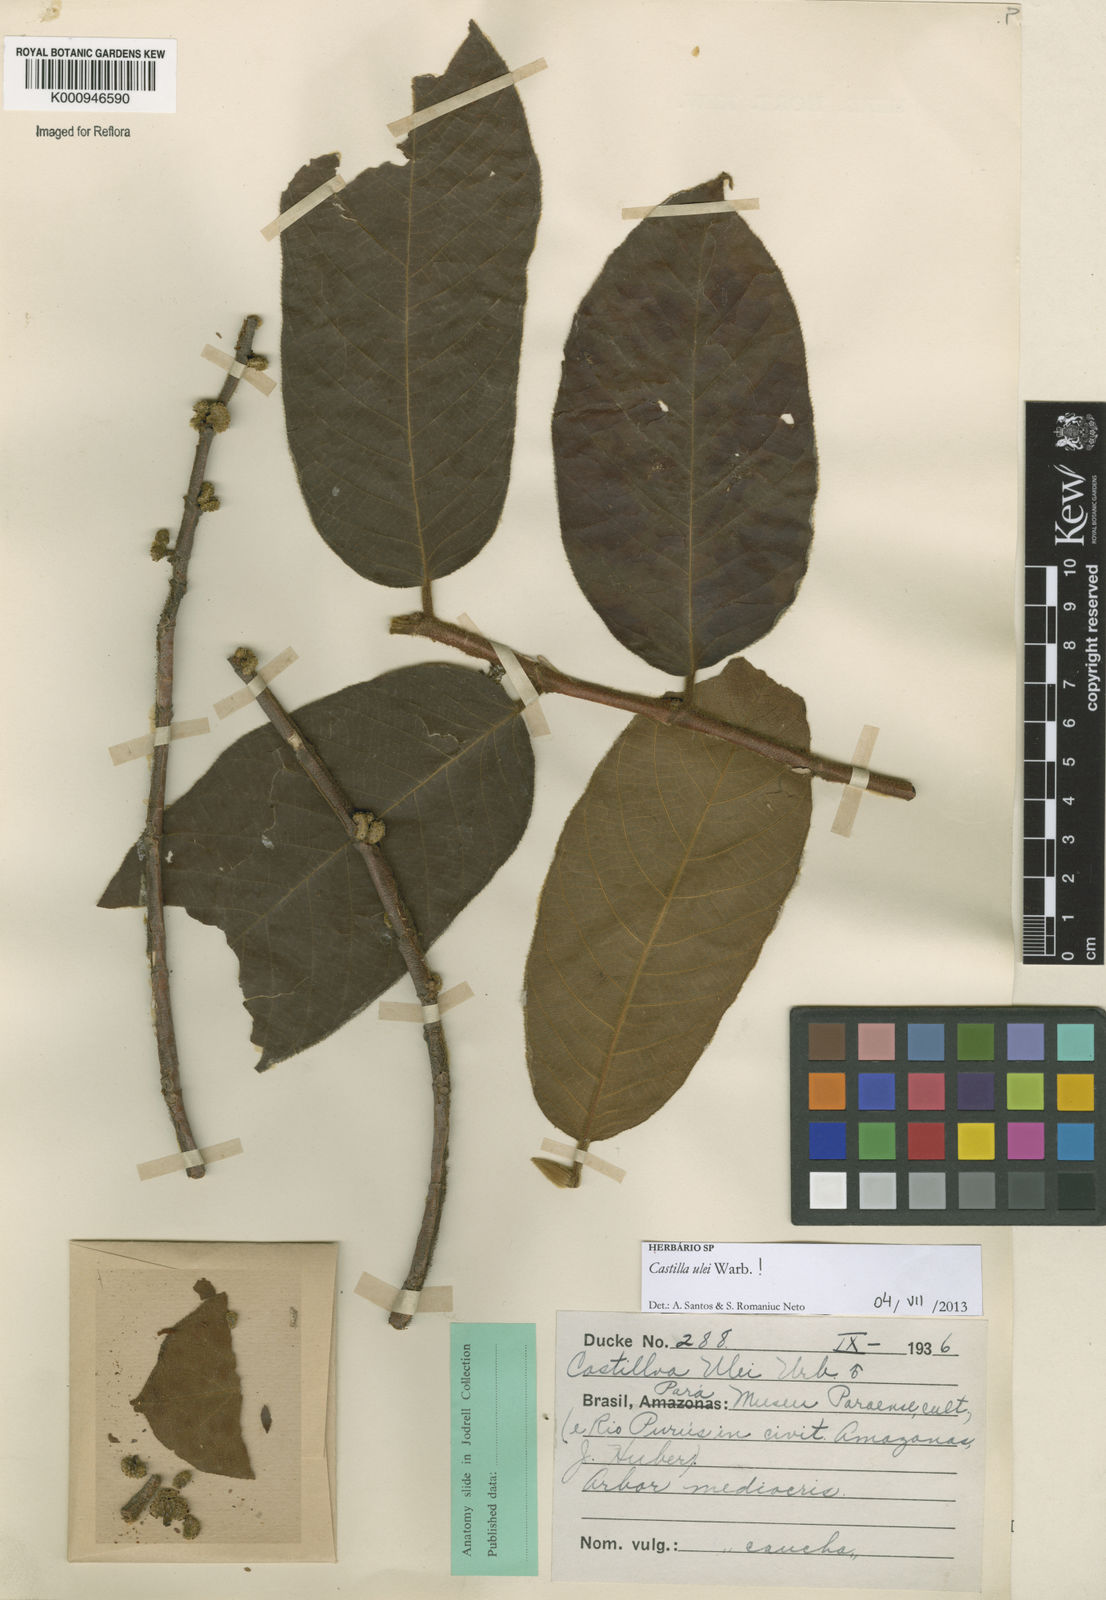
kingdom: Plantae
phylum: Tracheophyta
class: Magnoliopsida
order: Rosales
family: Moraceae
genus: Castilla
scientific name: Castilla ulei
